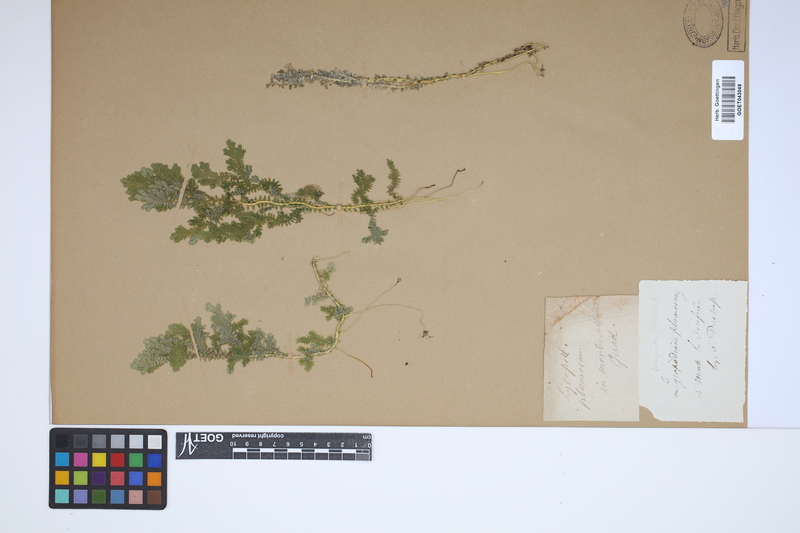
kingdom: Plantae
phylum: Tracheophyta
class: Lycopodiopsida
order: Selaginellales
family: Selaginellaceae
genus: Selaginella
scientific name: Selaginella substipitata
